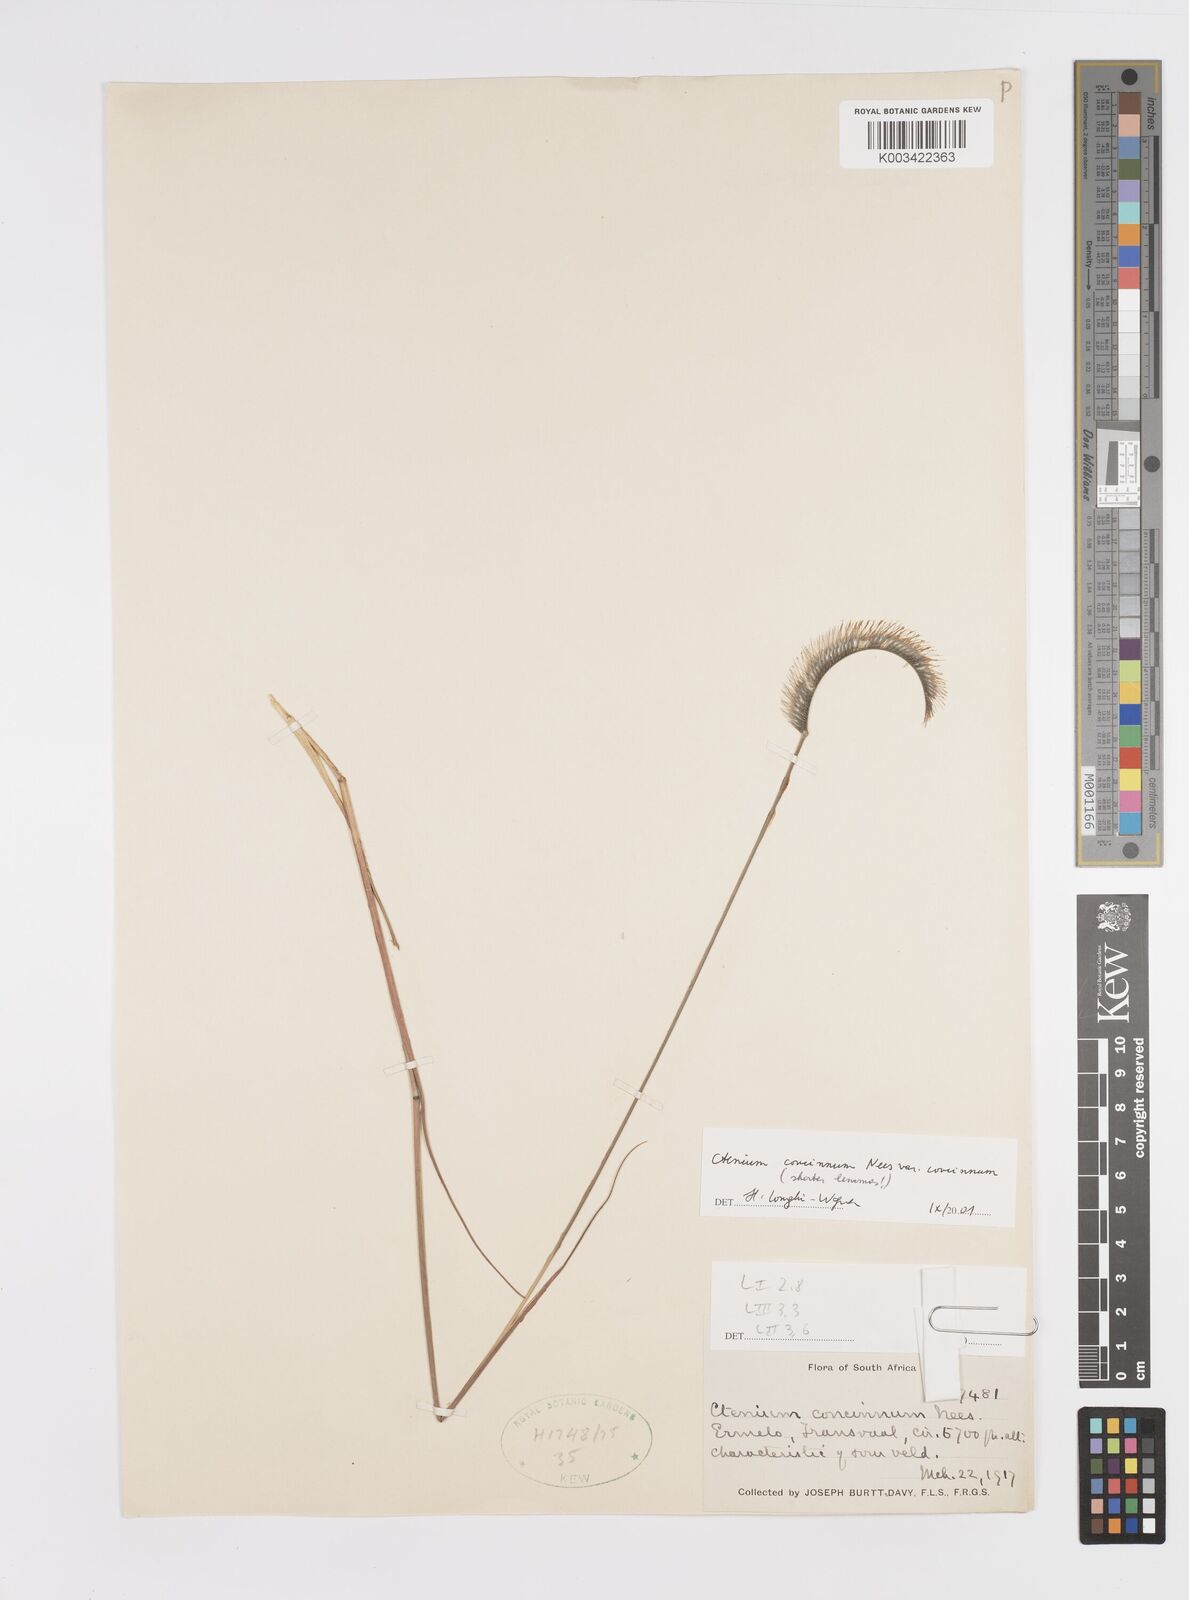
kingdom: Plantae
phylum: Tracheophyta
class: Liliopsida
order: Poales
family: Poaceae
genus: Ctenium
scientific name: Ctenium concinnum
